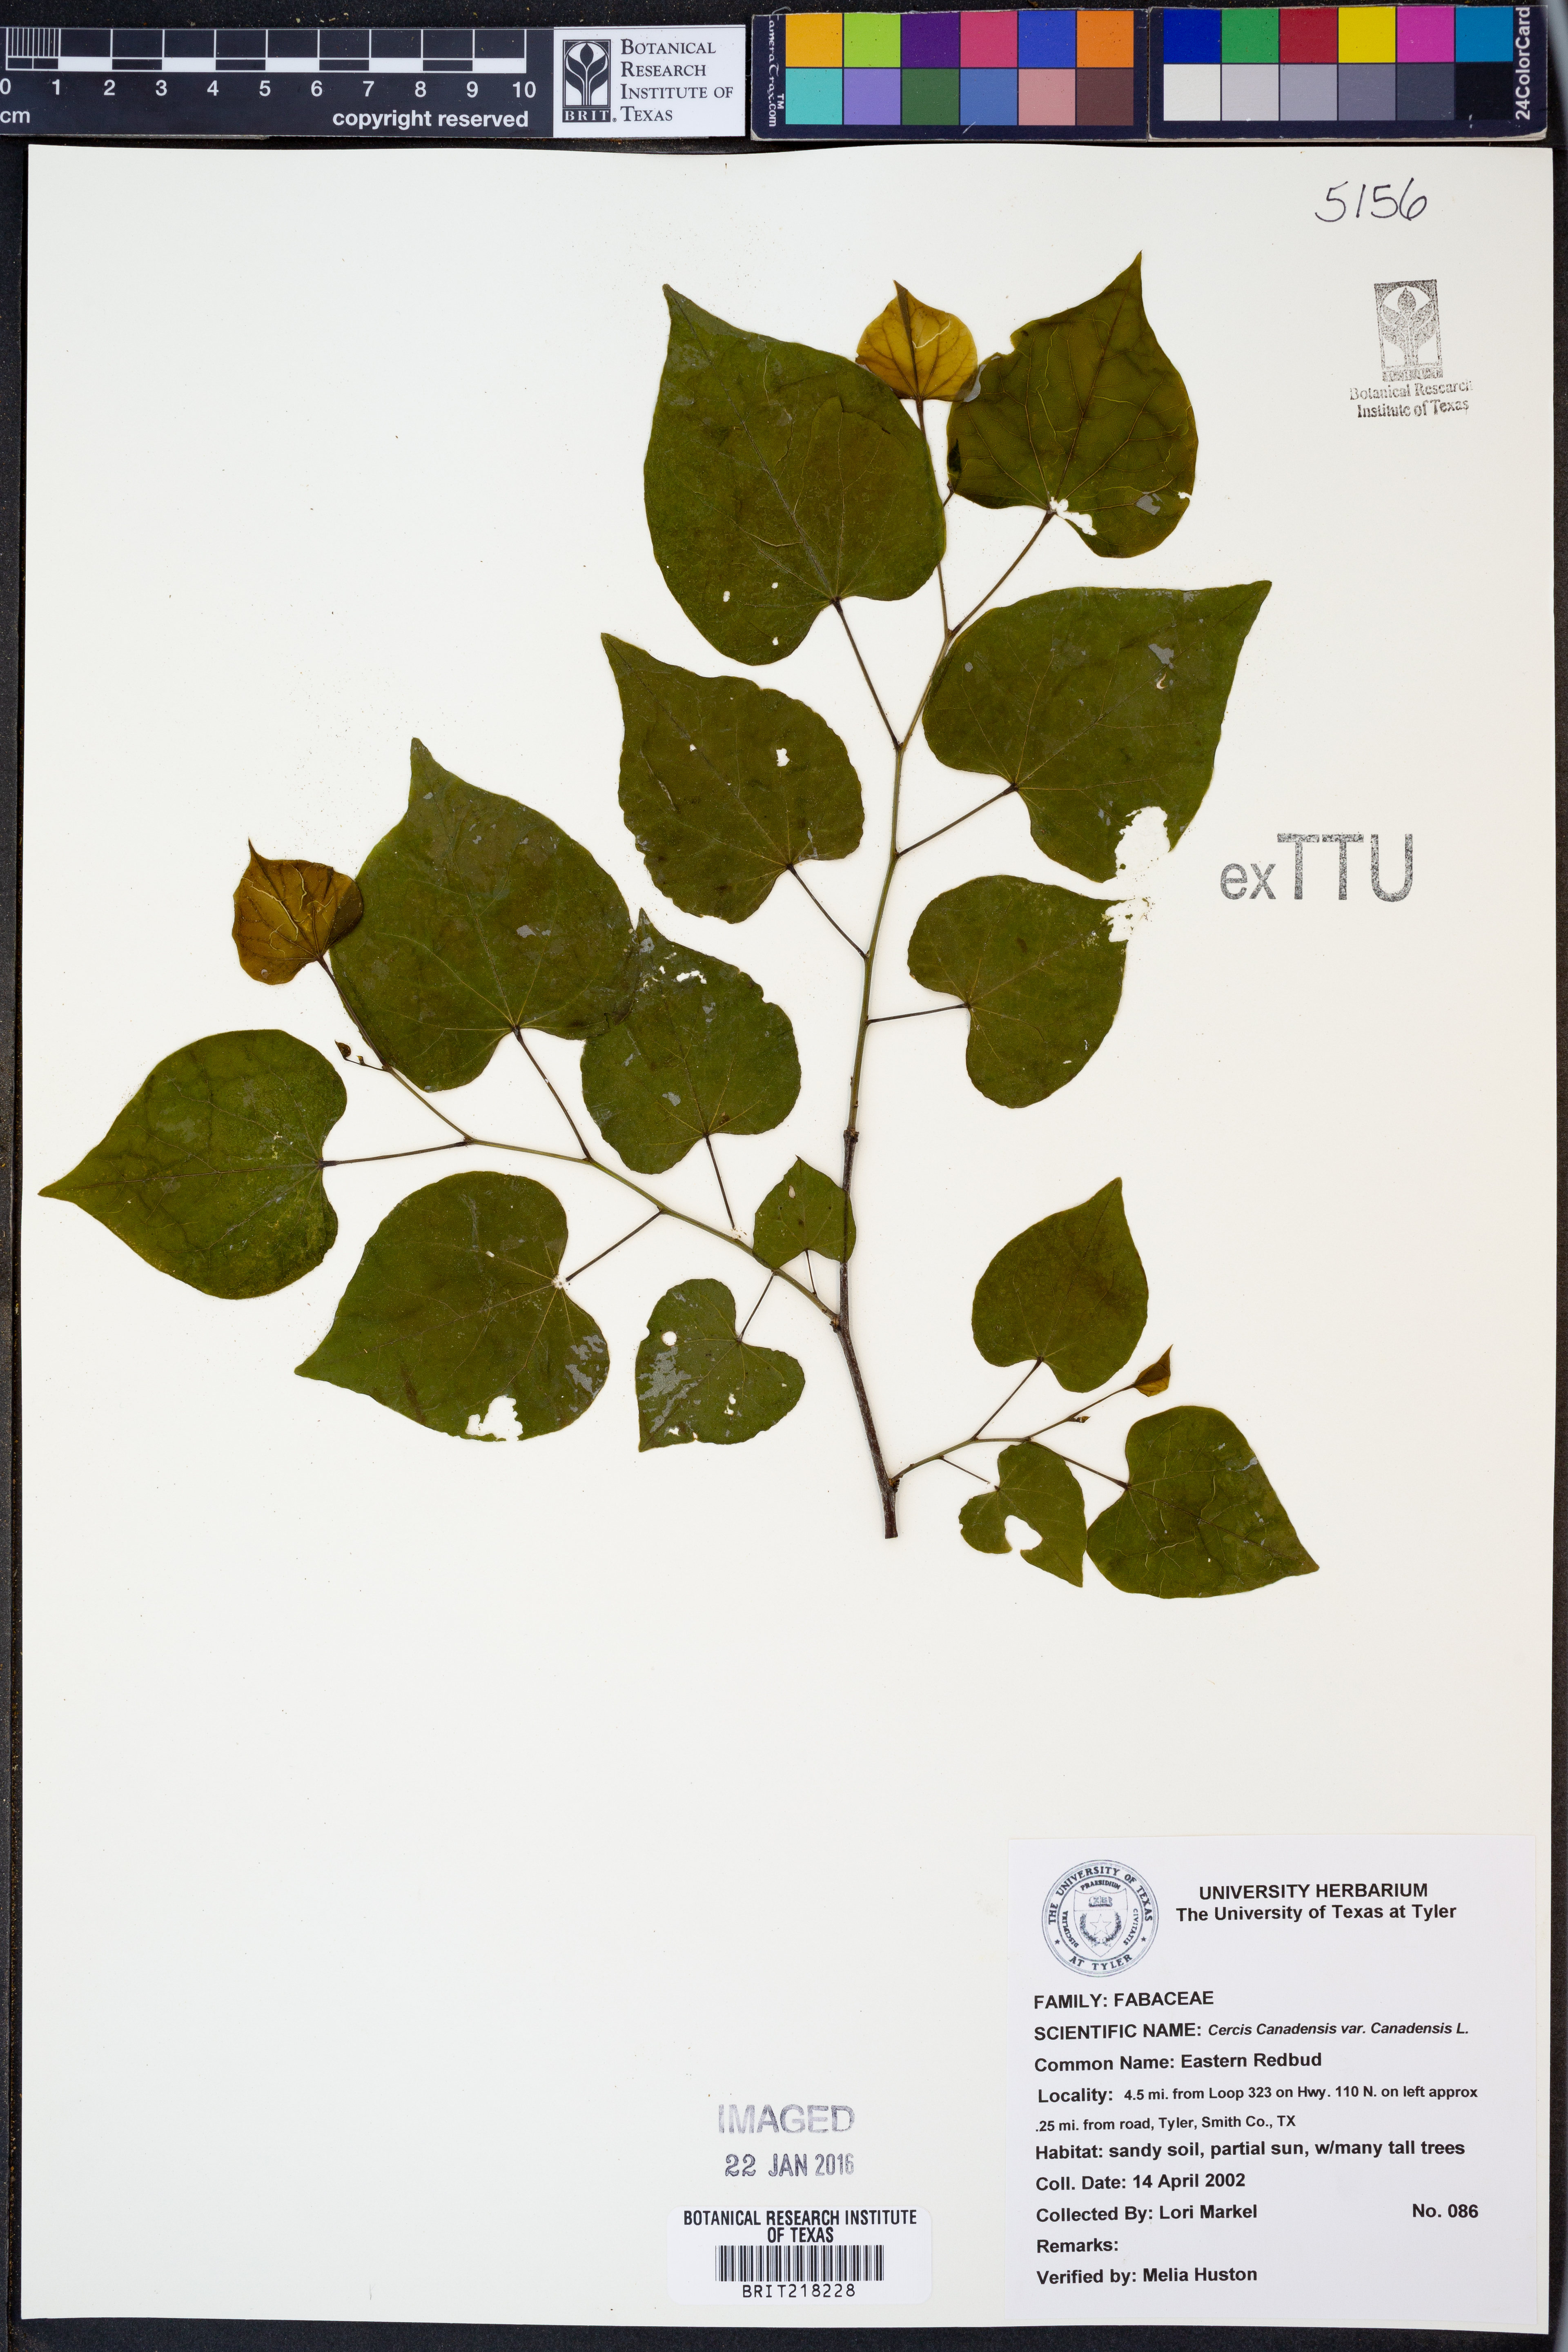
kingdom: Plantae
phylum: Tracheophyta
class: Magnoliopsida
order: Fabales
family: Fabaceae
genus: Cercis
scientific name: Cercis canadensis
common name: Eastern redbud
